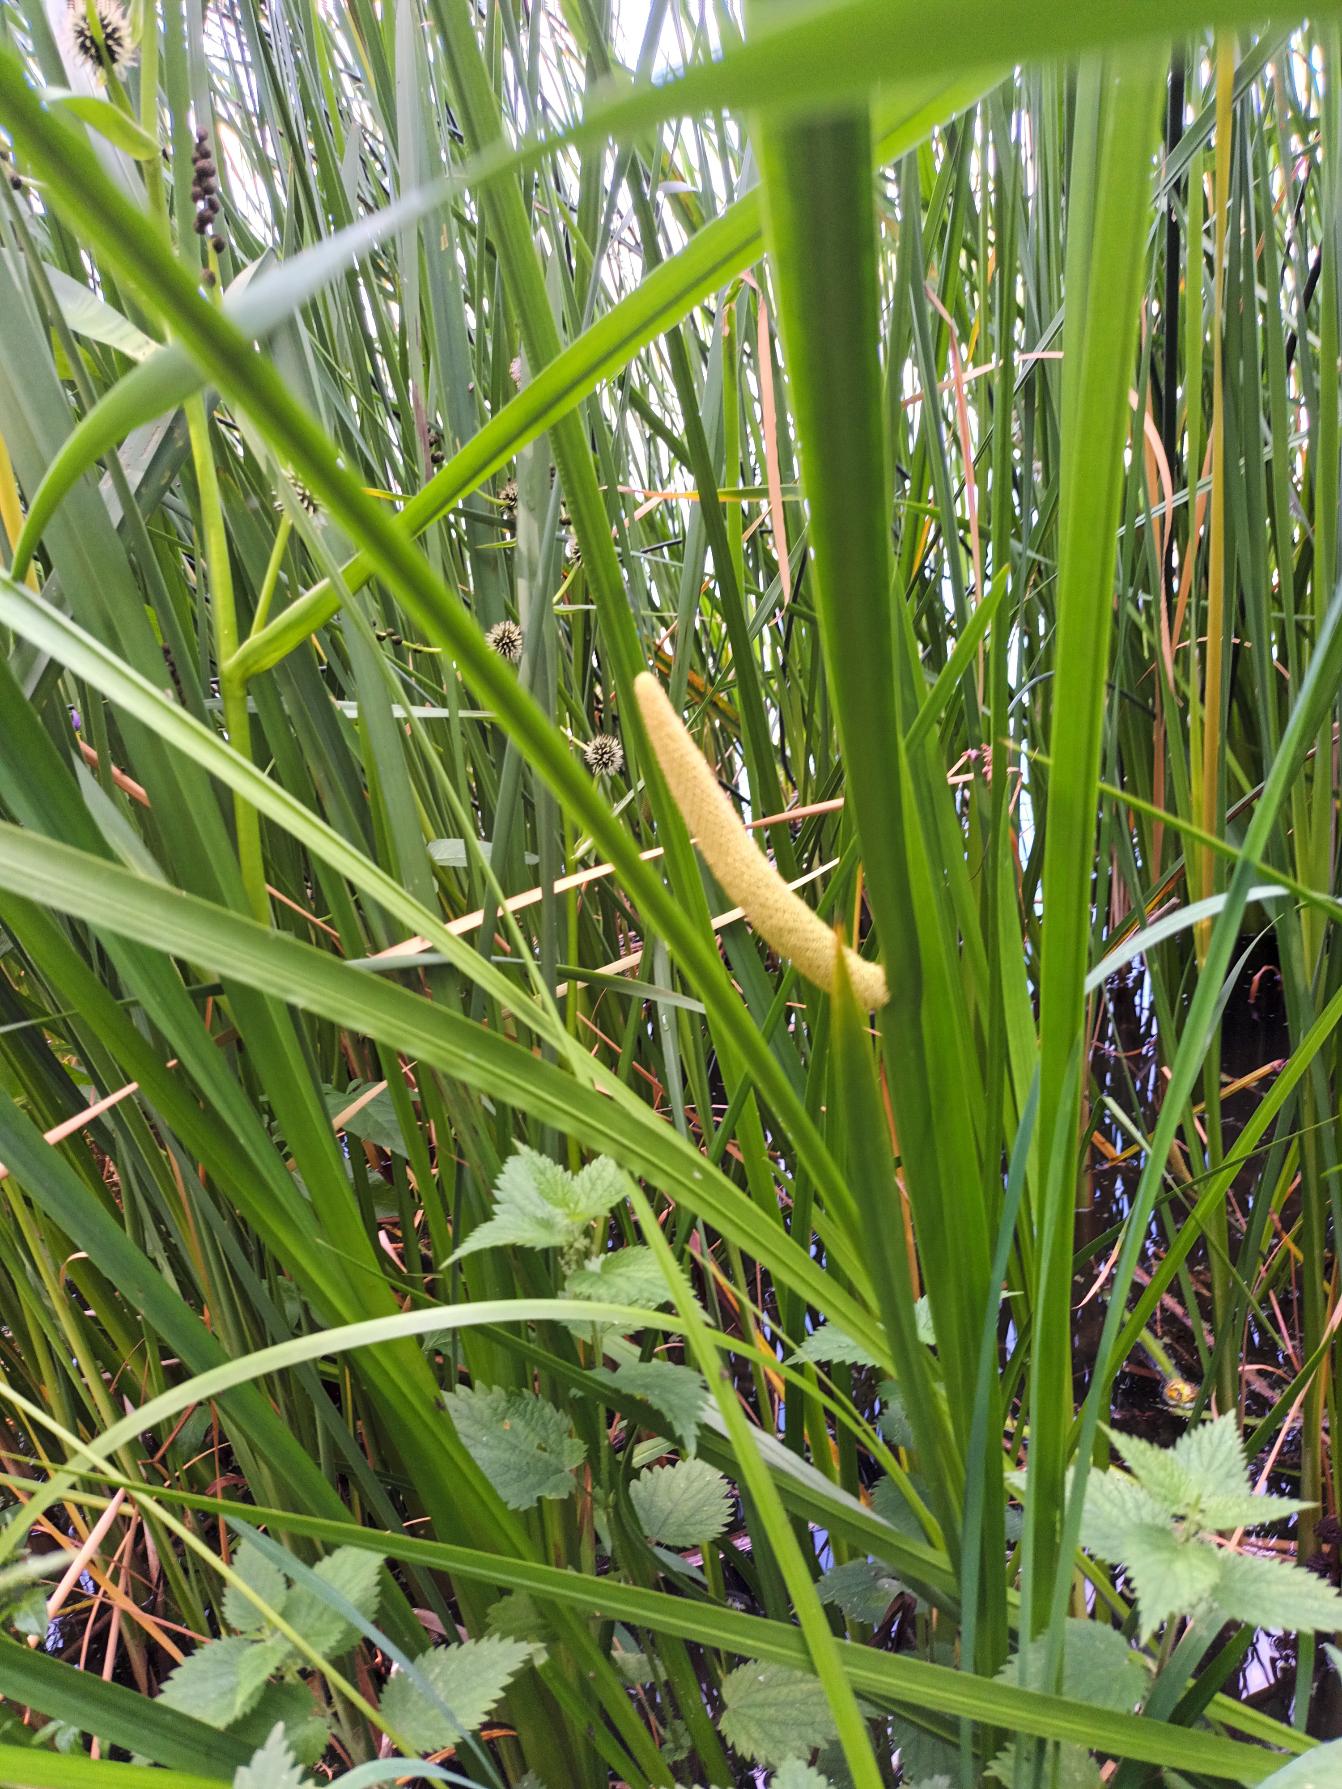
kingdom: Plantae
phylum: Tracheophyta
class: Liliopsida
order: Acorales
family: Acoraceae
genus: Acorus
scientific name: Acorus calamus
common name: Kalmus
